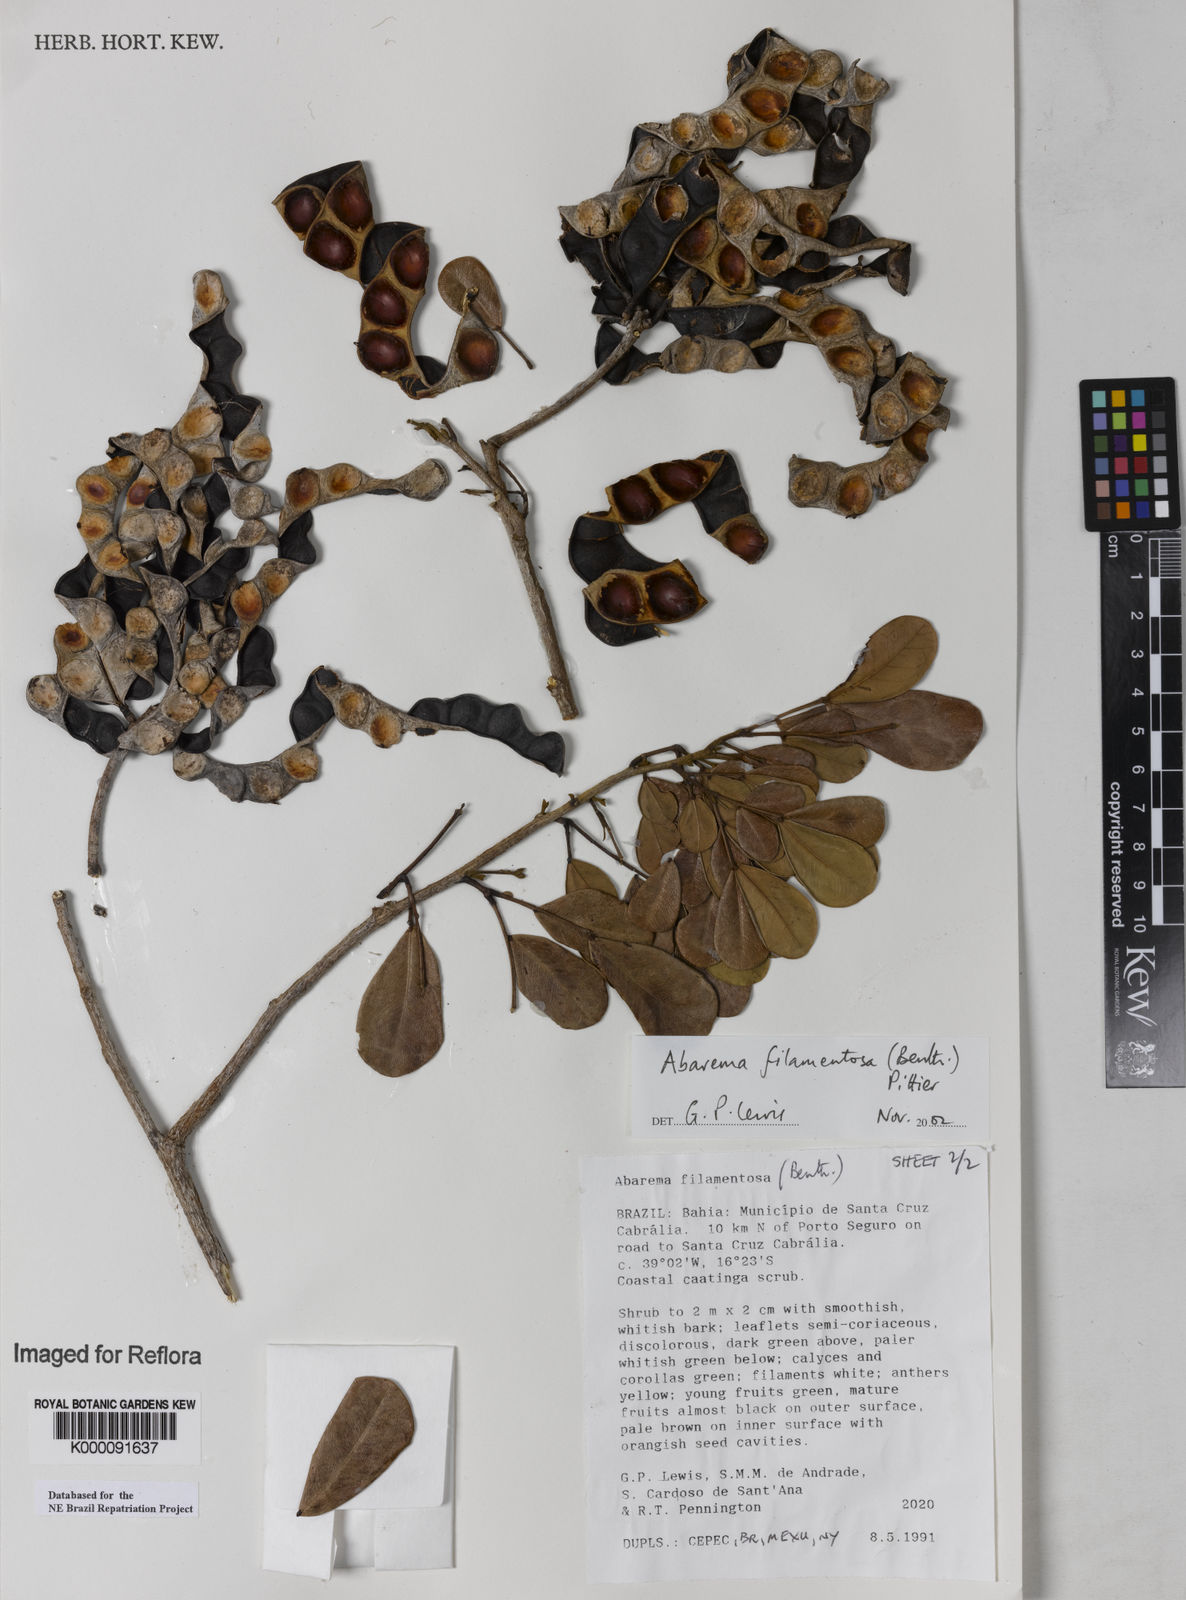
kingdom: Plantae
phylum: Tracheophyta
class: Magnoliopsida
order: Fabales
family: Fabaceae
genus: Jupunba
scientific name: Jupunba filamentosa
